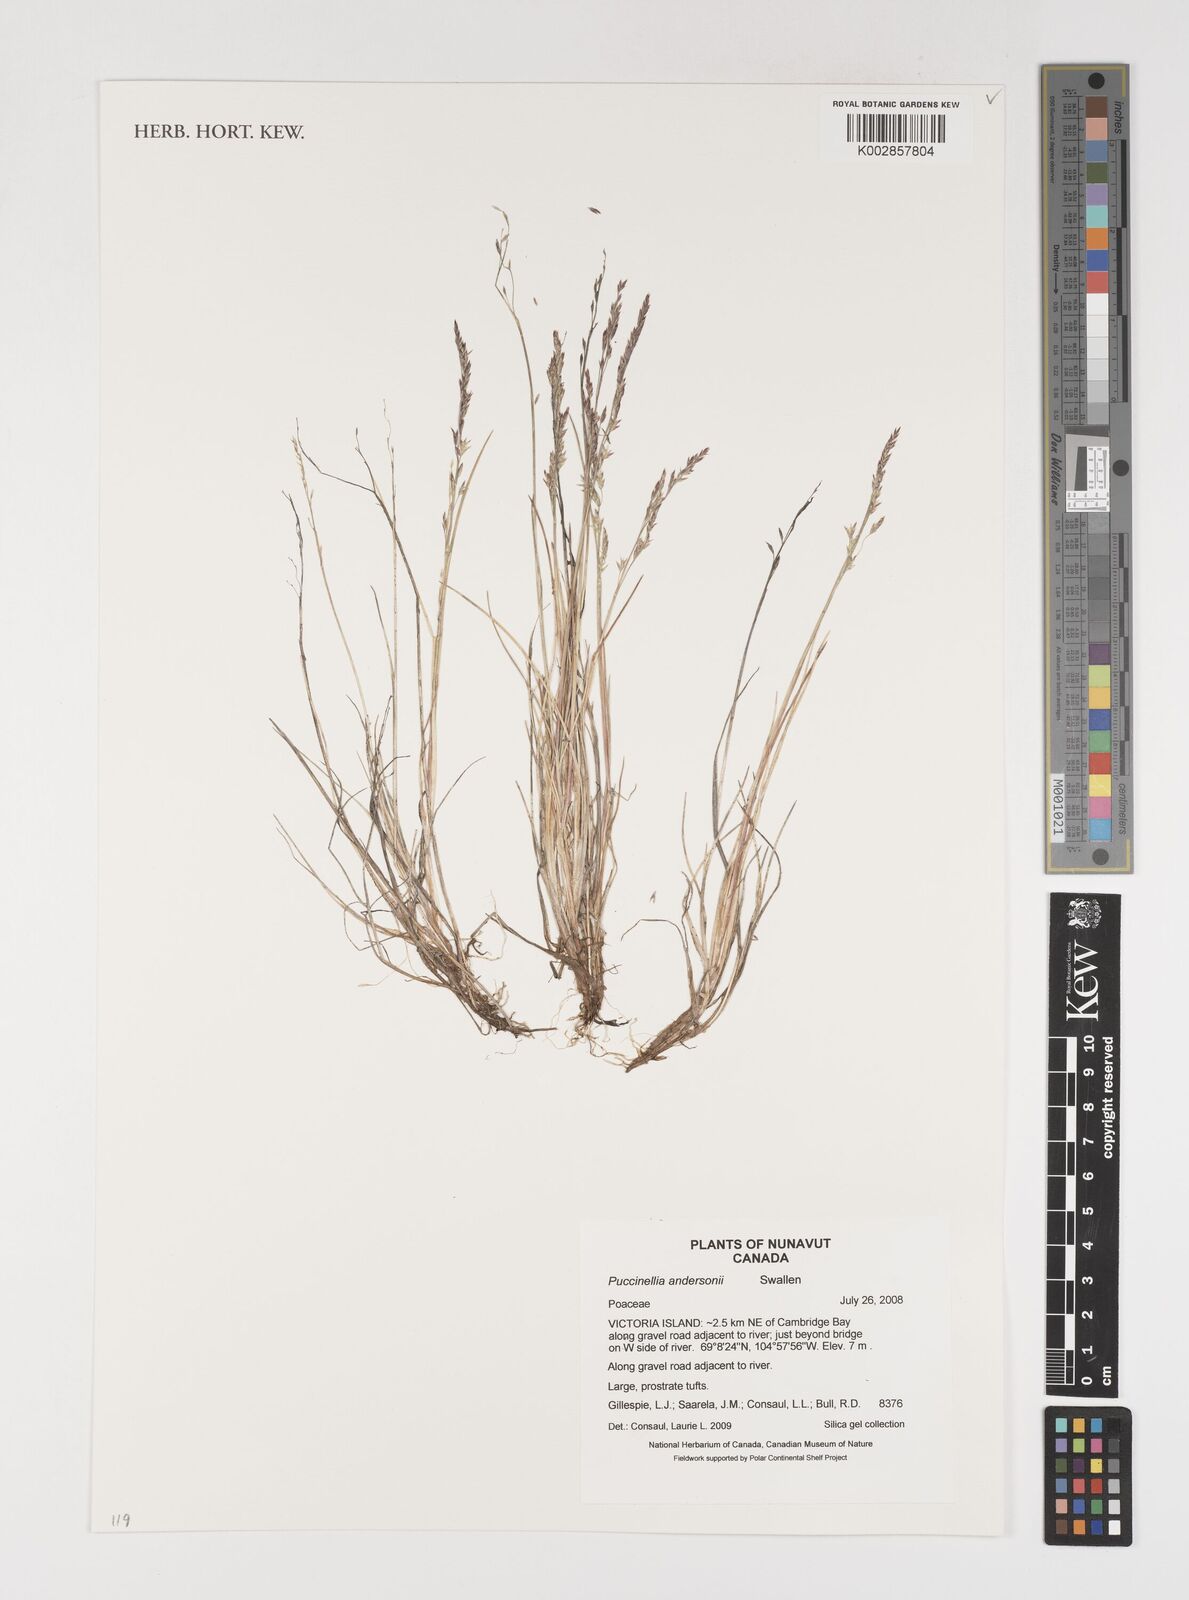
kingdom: Plantae
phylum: Tracheophyta
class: Liliopsida
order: Poales
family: Poaceae
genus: Puccinellia
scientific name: Puccinellia andersonii
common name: Anderson's alkali grass
